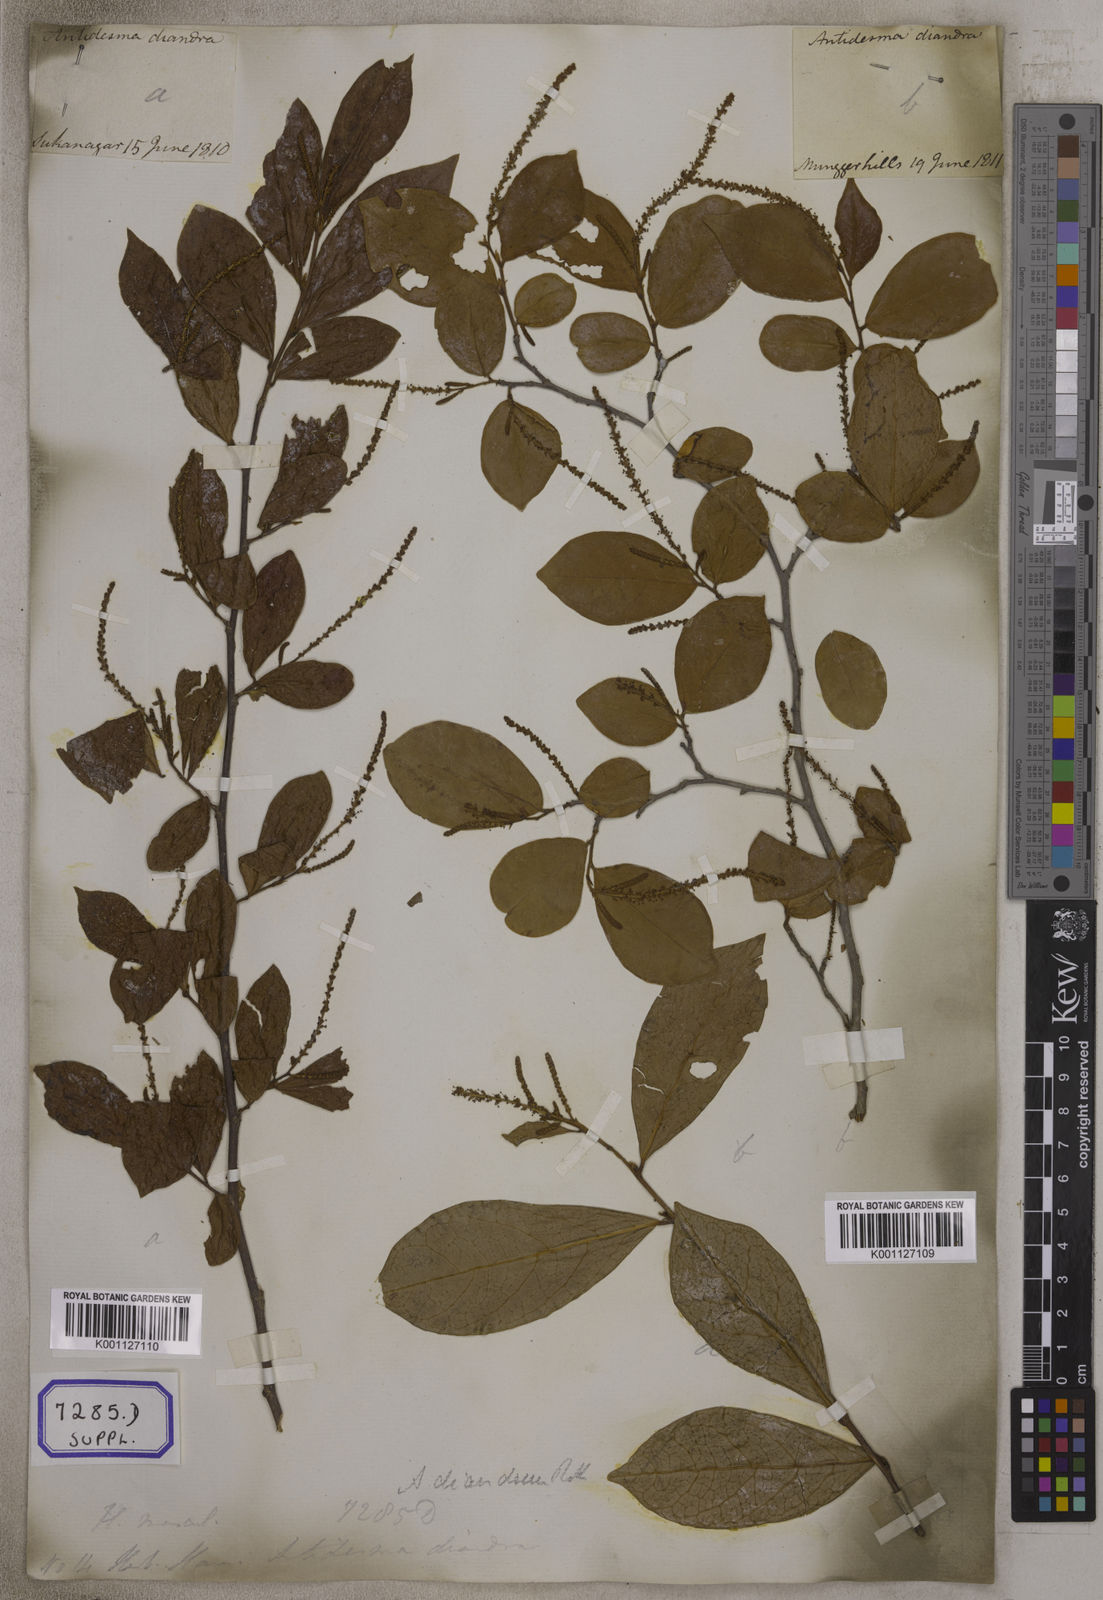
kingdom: Plantae
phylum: Tracheophyta
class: Magnoliopsida
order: Malpighiales
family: Phyllanthaceae
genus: Antidesma
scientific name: Antidesma
